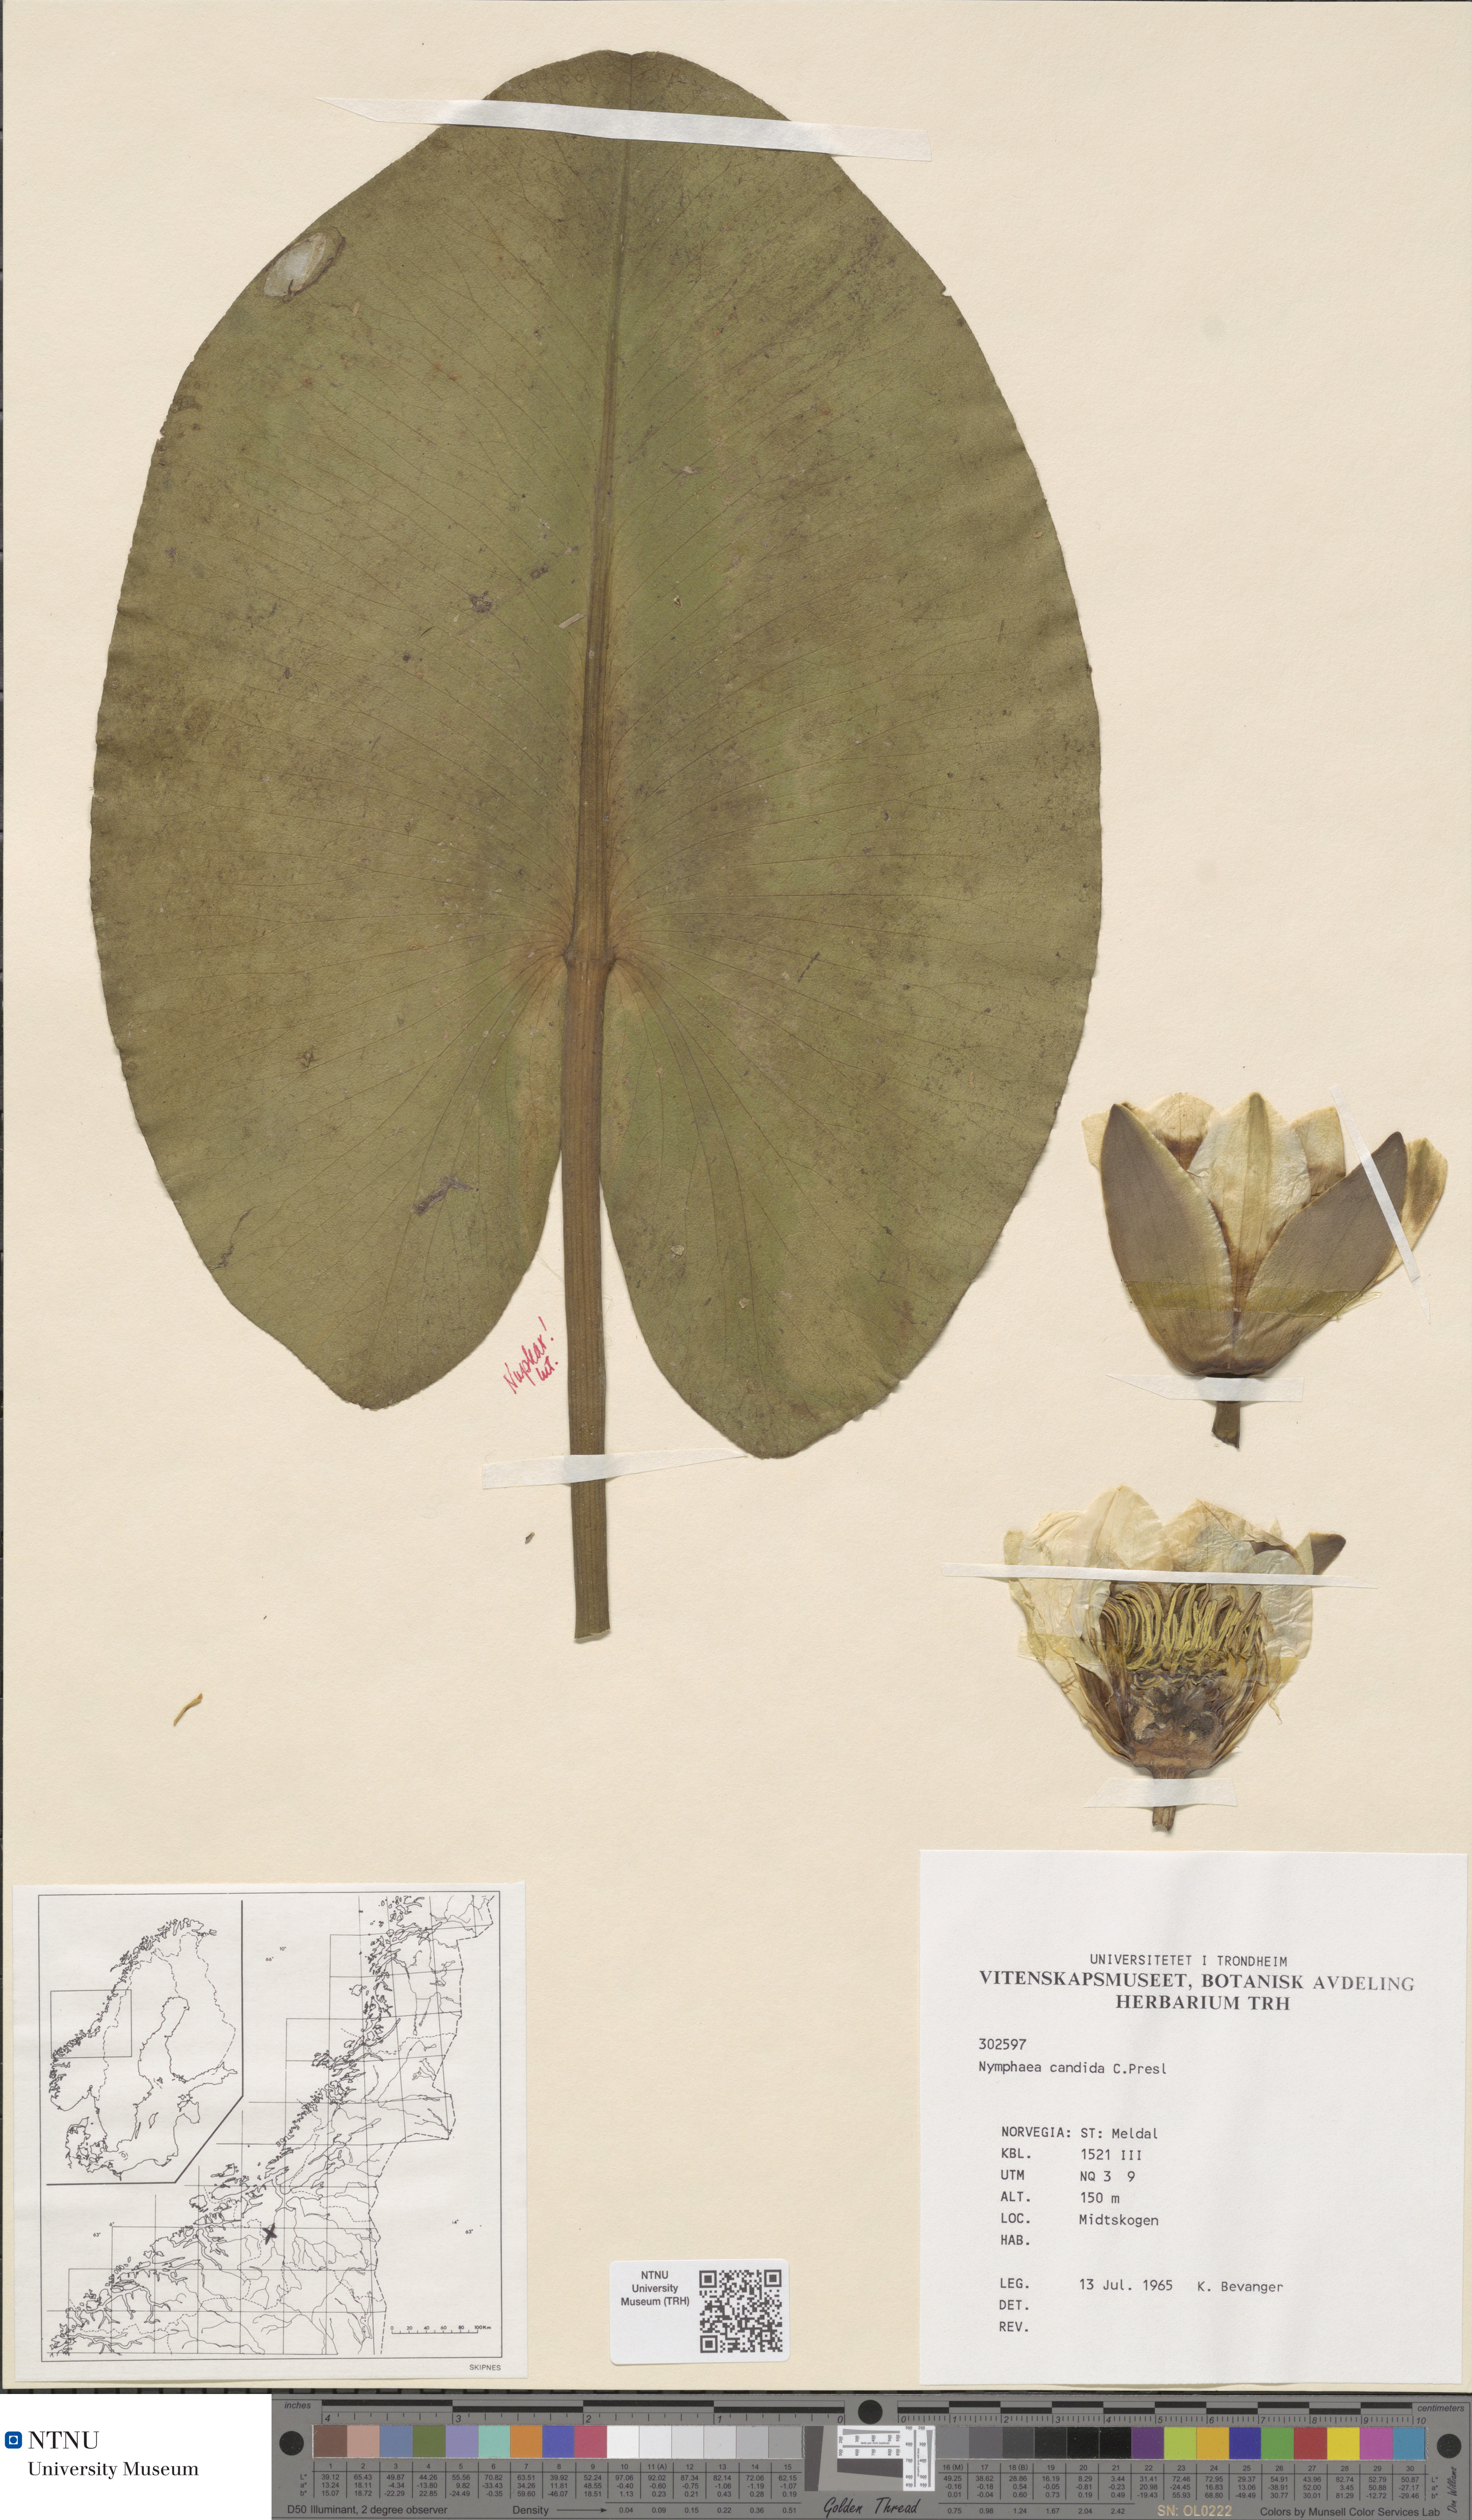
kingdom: Plantae
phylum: Tracheophyta
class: Magnoliopsida
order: Nymphaeales
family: Nymphaeaceae
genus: Nymphaea
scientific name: Nymphaea candida
